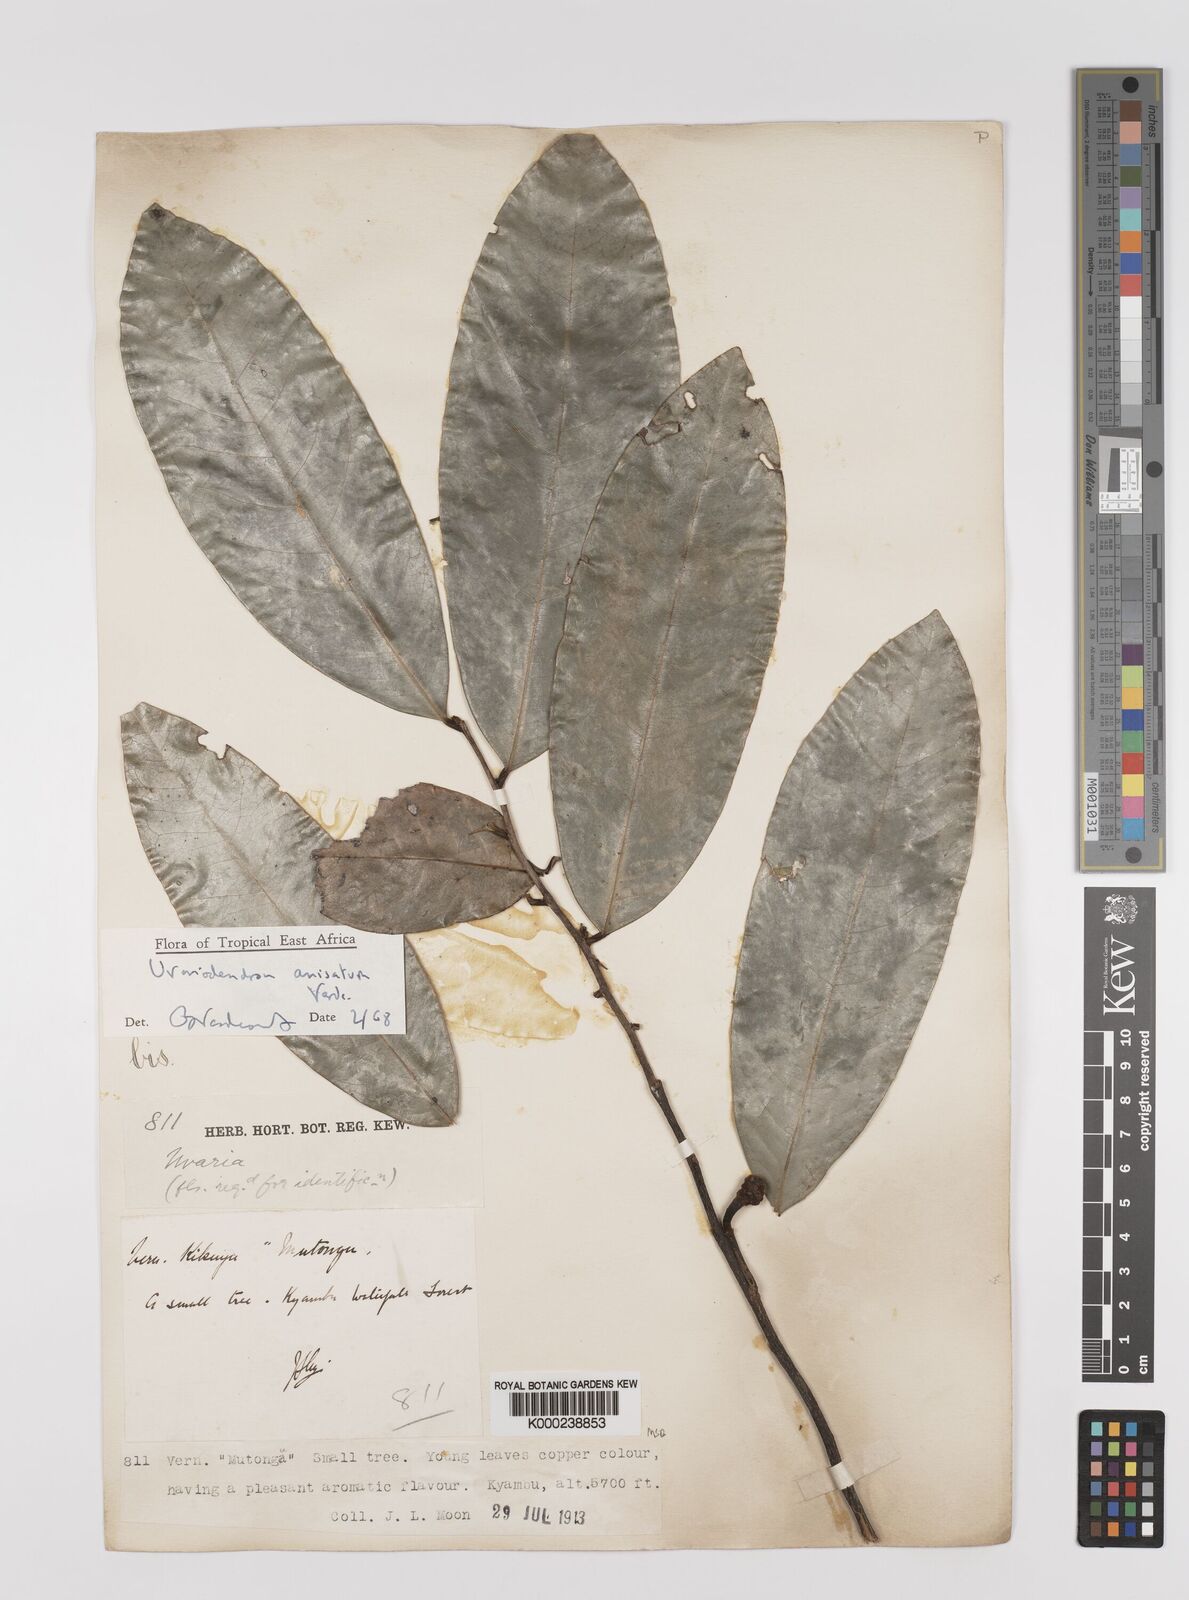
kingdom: Plantae
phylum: Tracheophyta
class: Magnoliopsida
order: Magnoliales
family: Annonaceae
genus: Uvariodendron
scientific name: Uvariodendron anisatum
